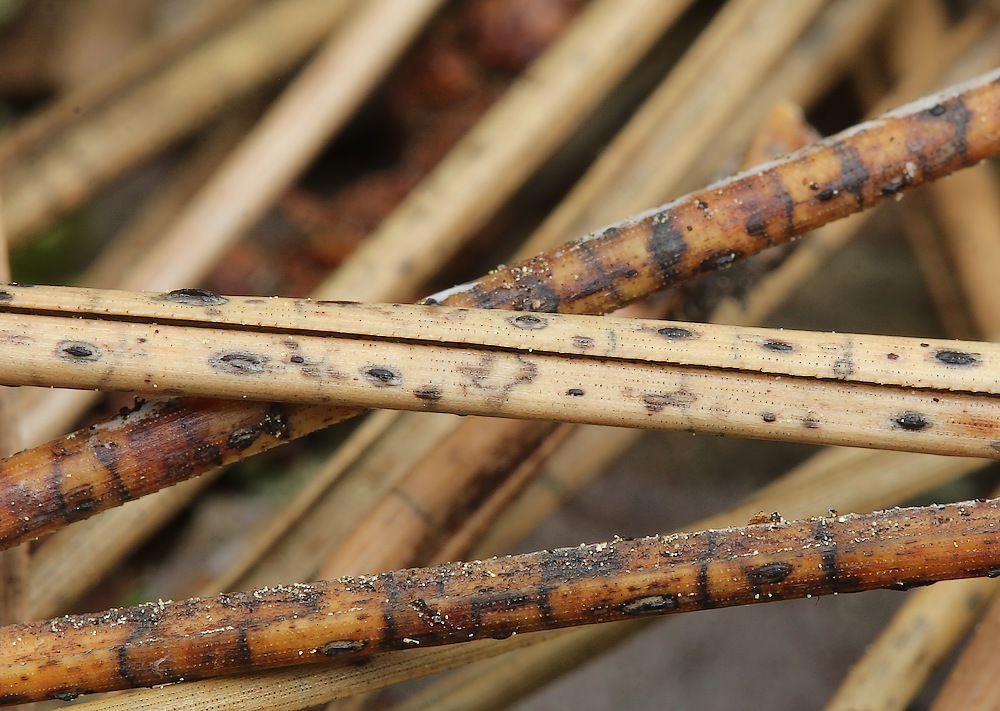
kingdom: Fungi
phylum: Ascomycota
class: Leotiomycetes
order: Rhytismatales
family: Rhytismataceae
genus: Lophodermium
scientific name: Lophodermium
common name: fureplet
